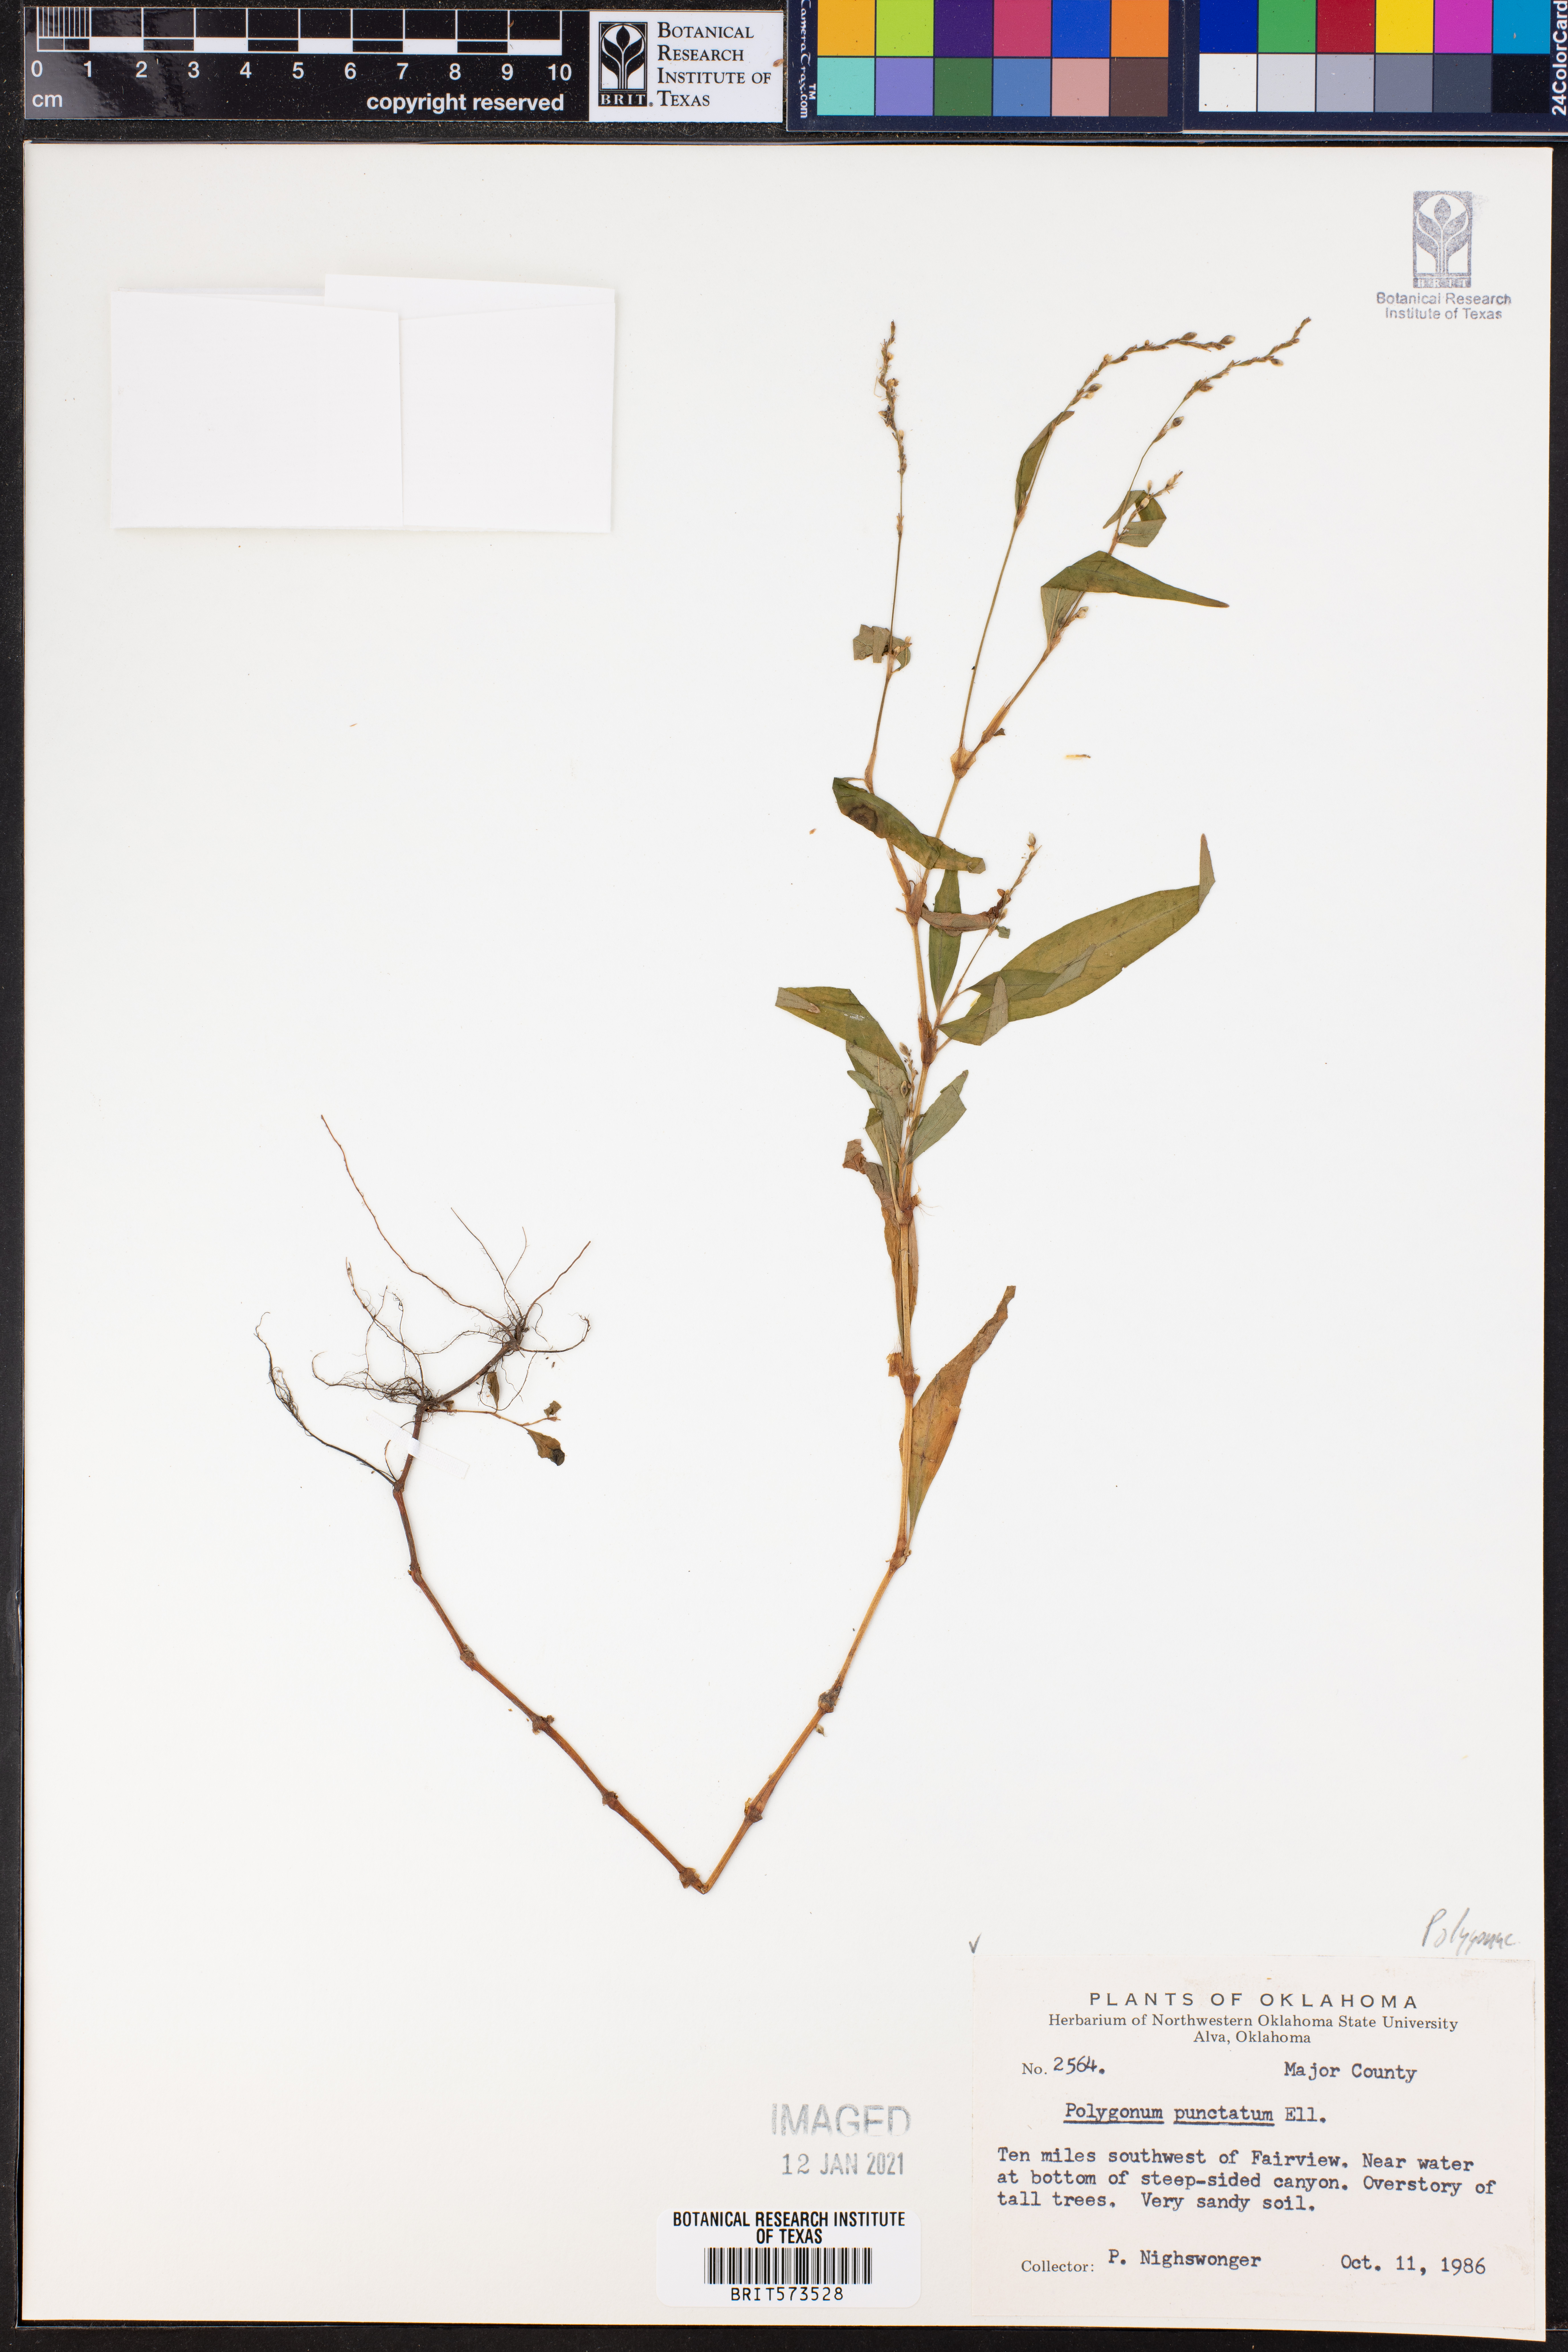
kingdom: Plantae
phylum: Tracheophyta
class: Magnoliopsida
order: Caryophyllales
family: Polygonaceae
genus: Persicaria
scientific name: Persicaria punctata
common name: Dotted smartweed
